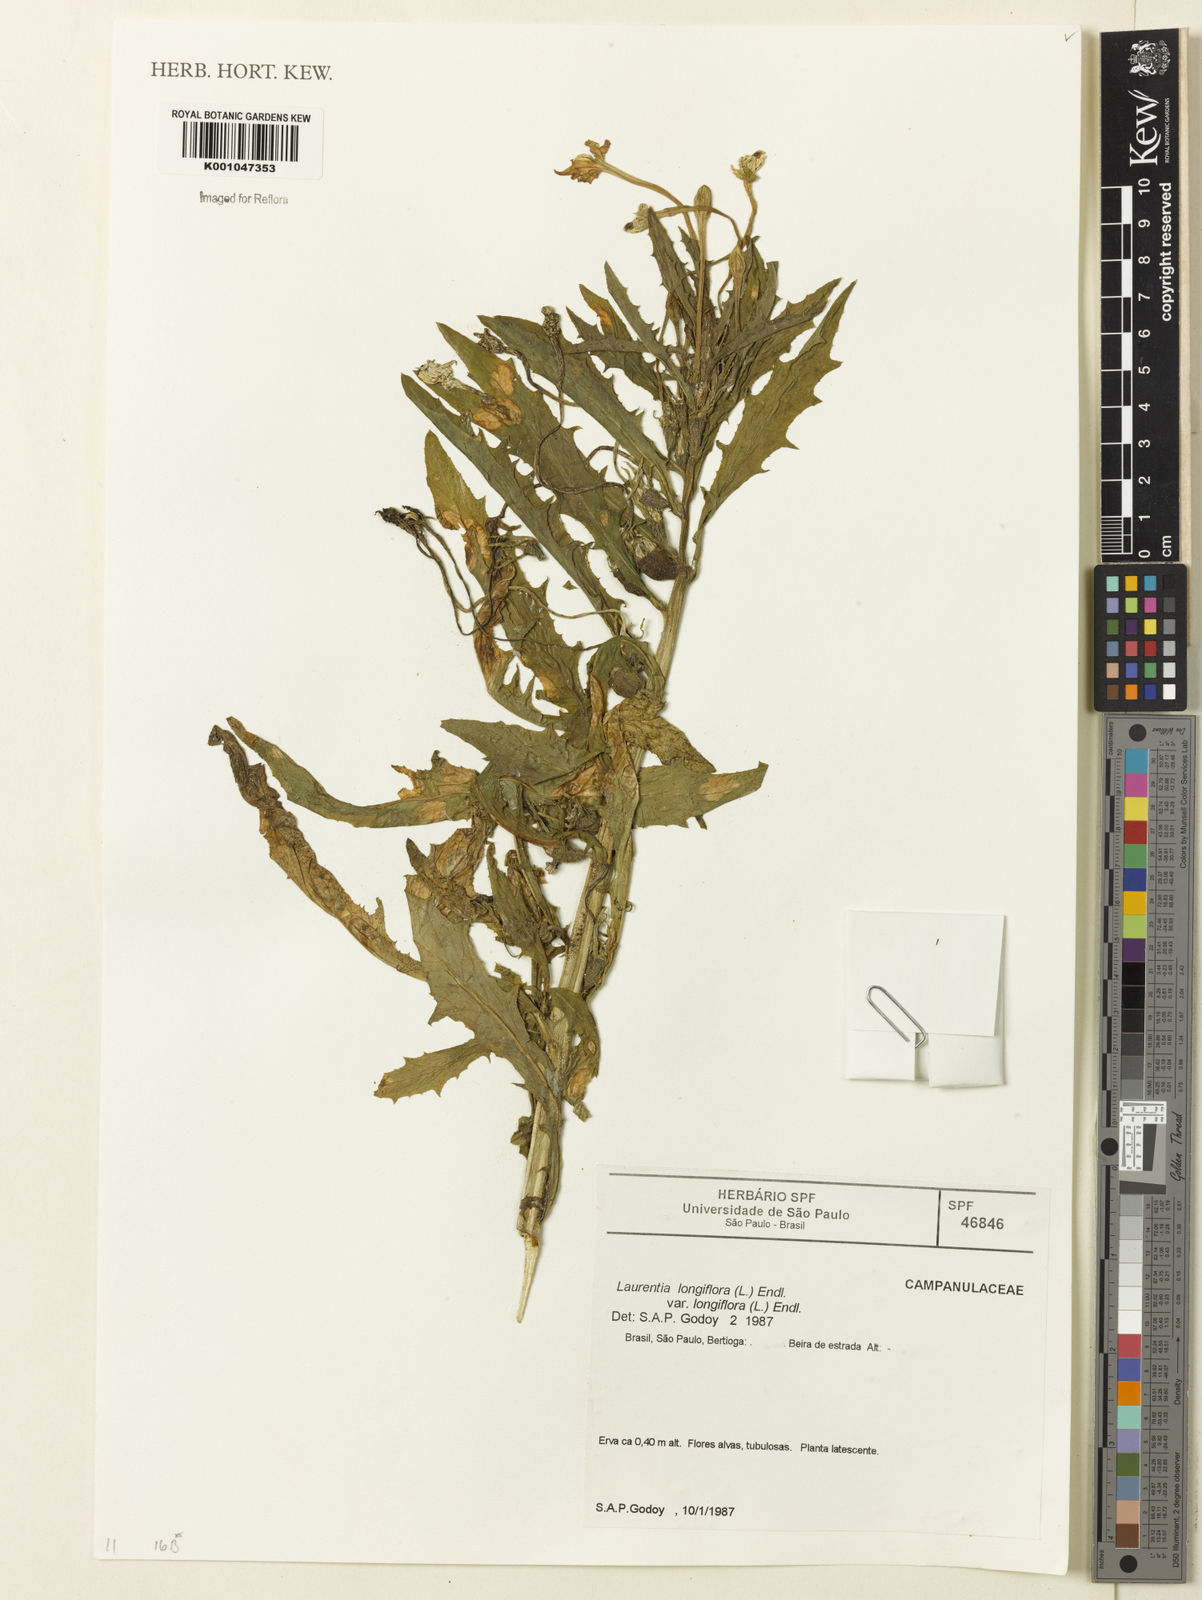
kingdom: Plantae
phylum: Tracheophyta
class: Magnoliopsida
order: Asterales
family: Campanulaceae
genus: Hippobroma
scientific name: Hippobroma longiflora
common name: Madamfate
